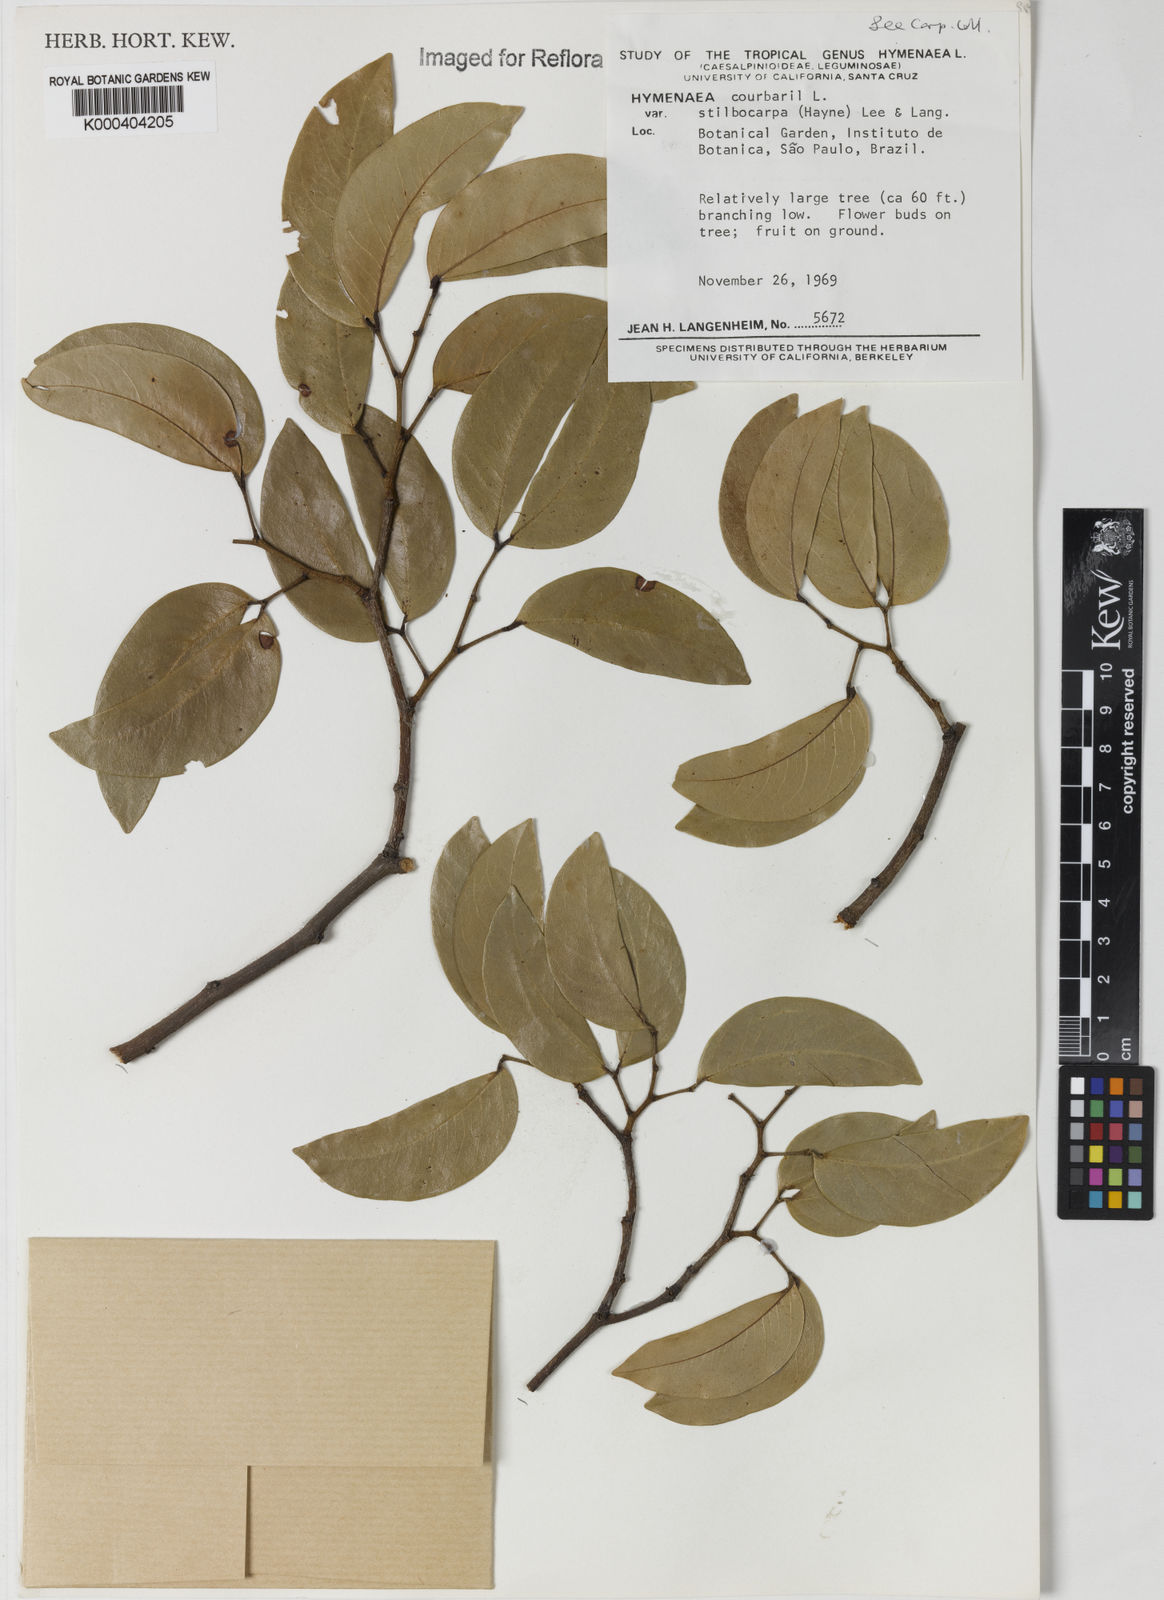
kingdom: Plantae
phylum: Tracheophyta
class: Magnoliopsida
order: Fabales
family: Fabaceae
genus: Hymenaea
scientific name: Hymenaea courbaril
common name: Brazilian copal
